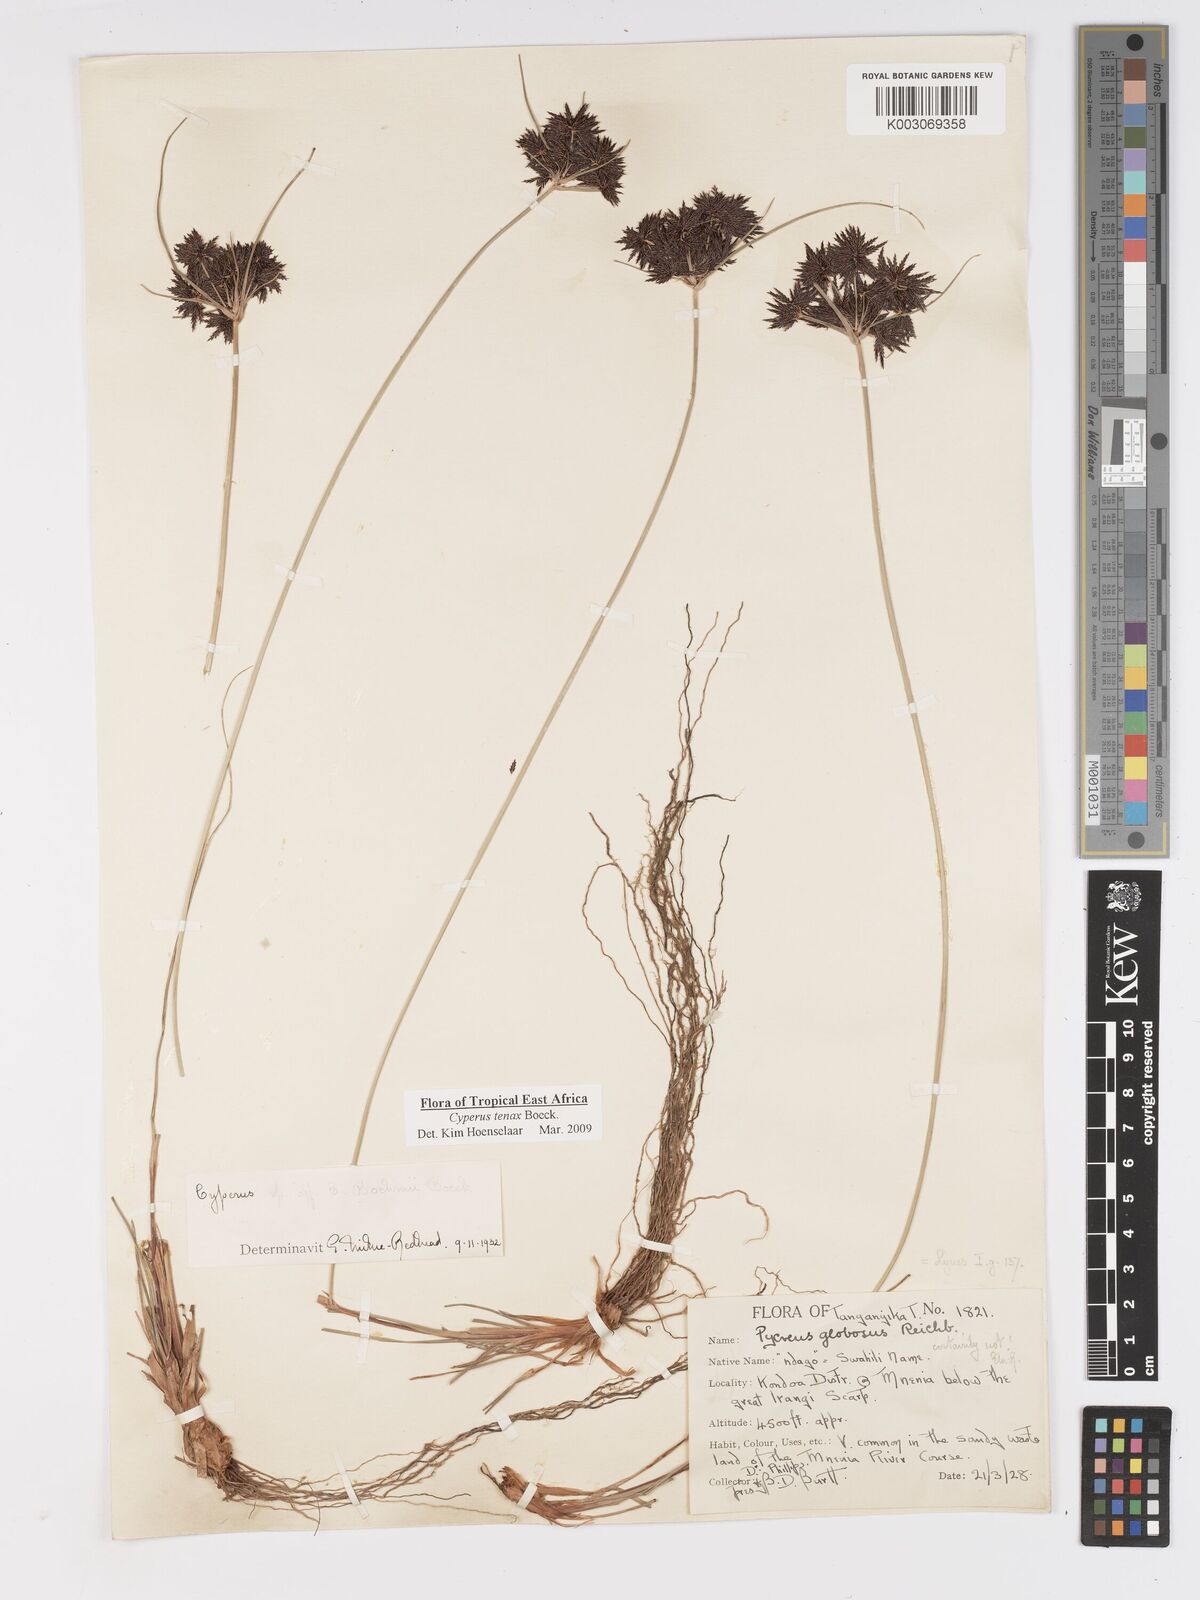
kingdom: Plantae
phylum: Tracheophyta
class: Liliopsida
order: Poales
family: Cyperaceae
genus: Cyperus
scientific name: Cyperus tenax
